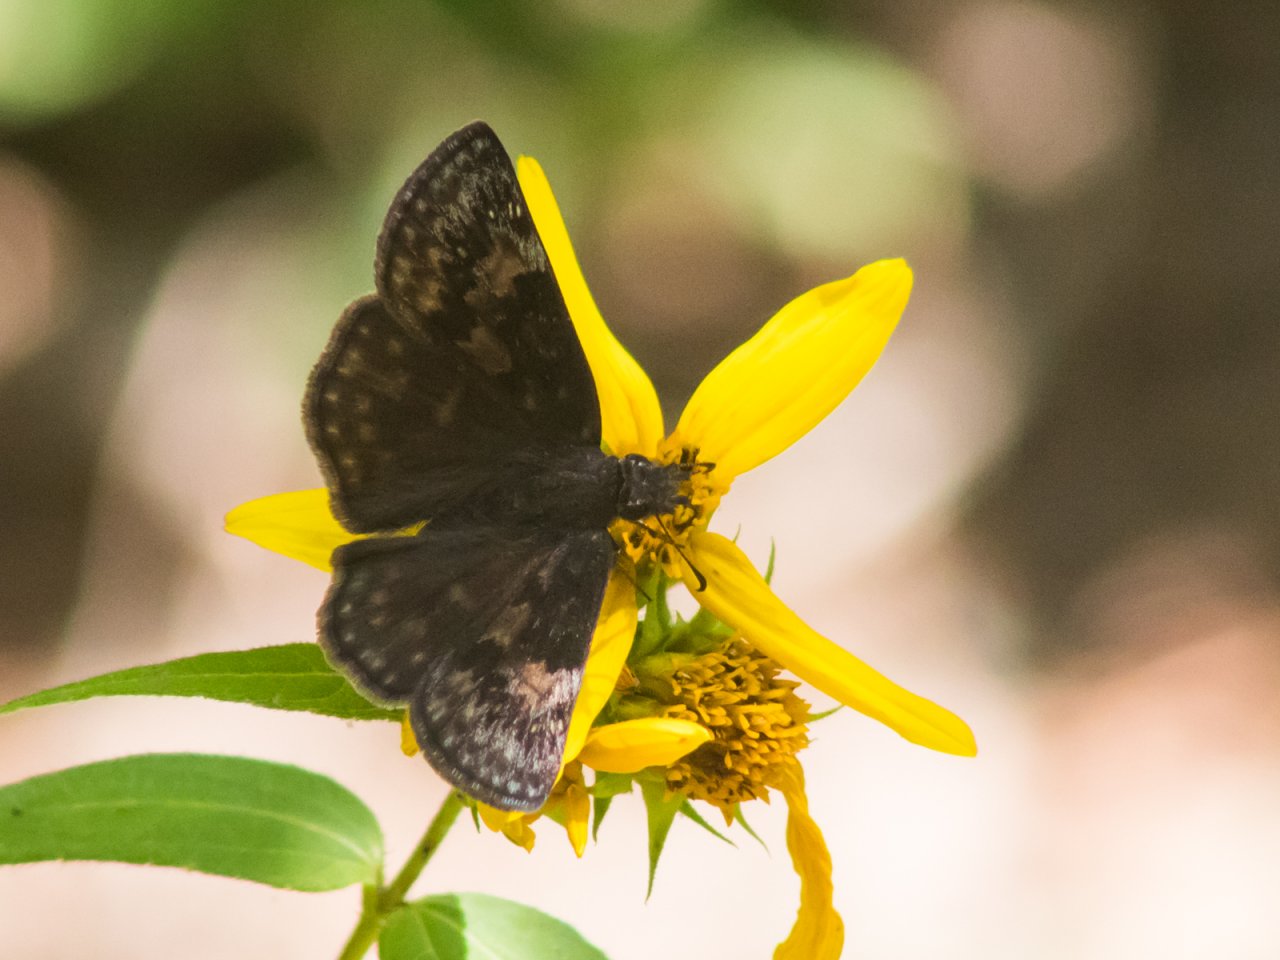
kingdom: Animalia
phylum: Arthropoda
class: Insecta
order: Lepidoptera
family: Hesperiidae
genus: Gesta
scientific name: Gesta
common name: Wild Indigo Duskywing
